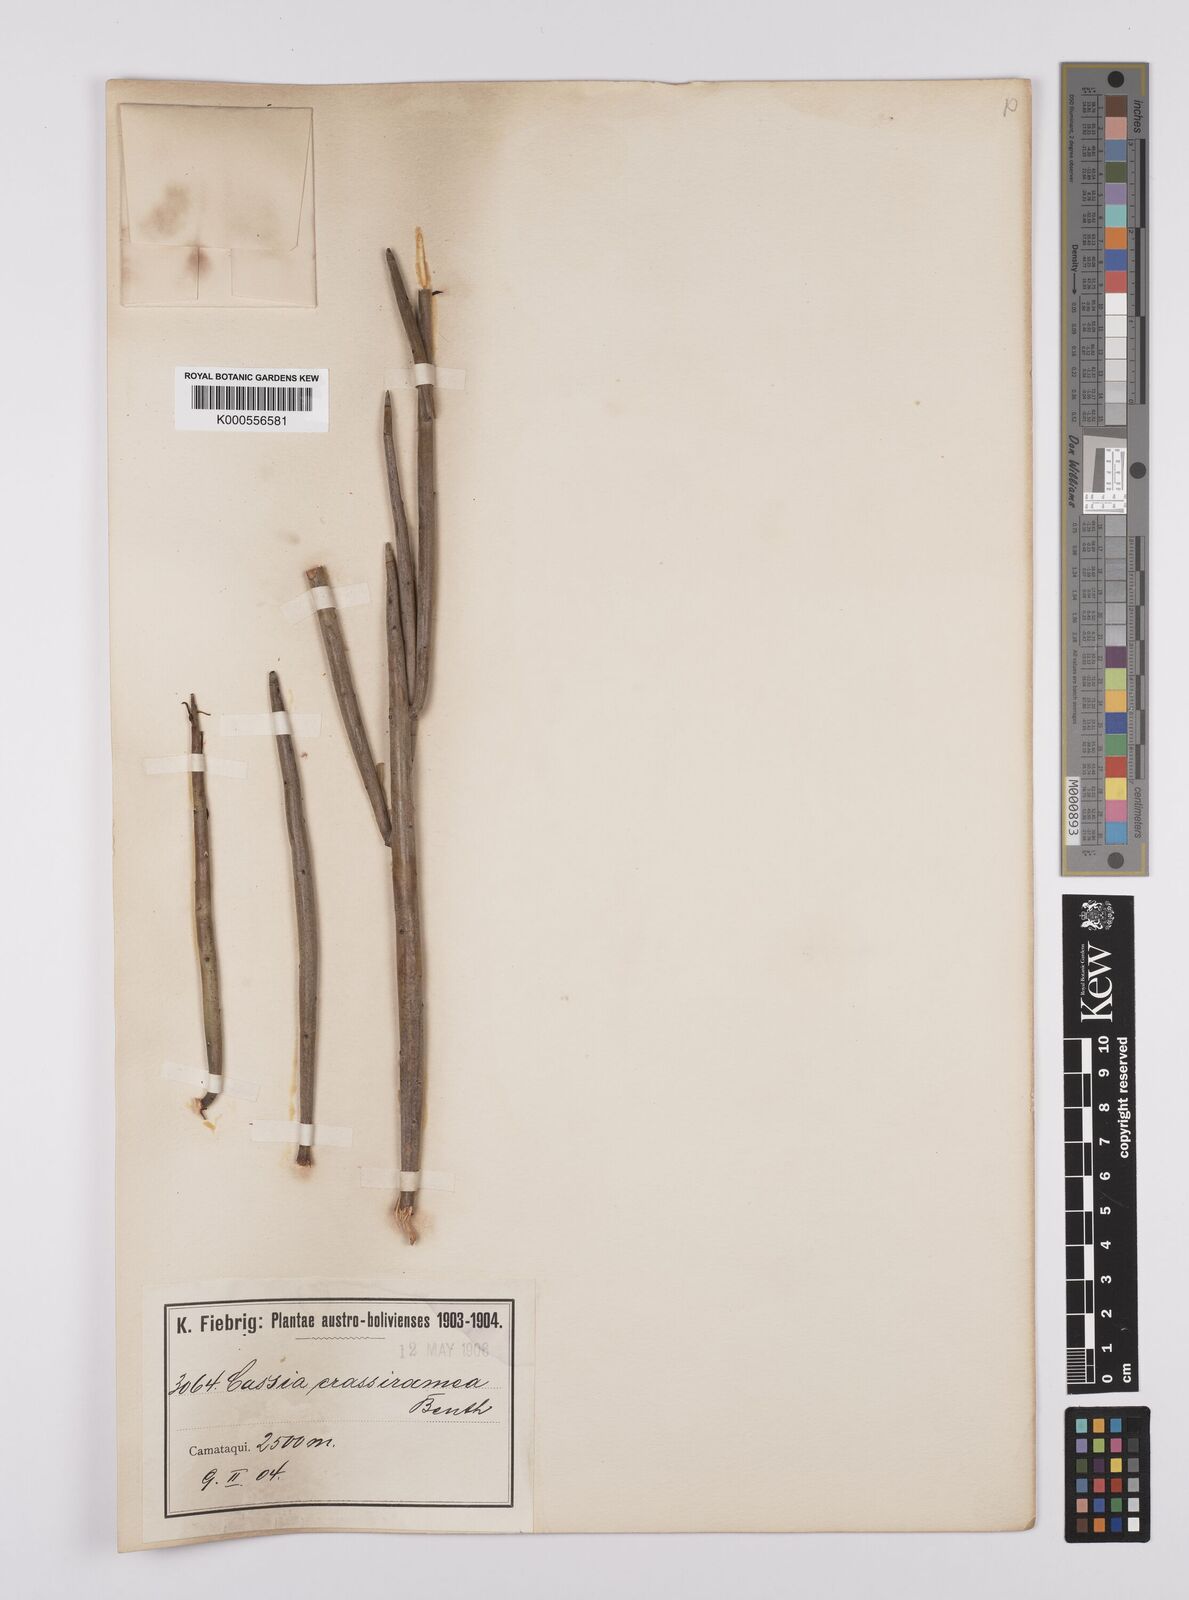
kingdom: Plantae
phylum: Tracheophyta
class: Magnoliopsida
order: Fabales
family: Fabaceae
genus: Senna
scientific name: Senna crassiramea
